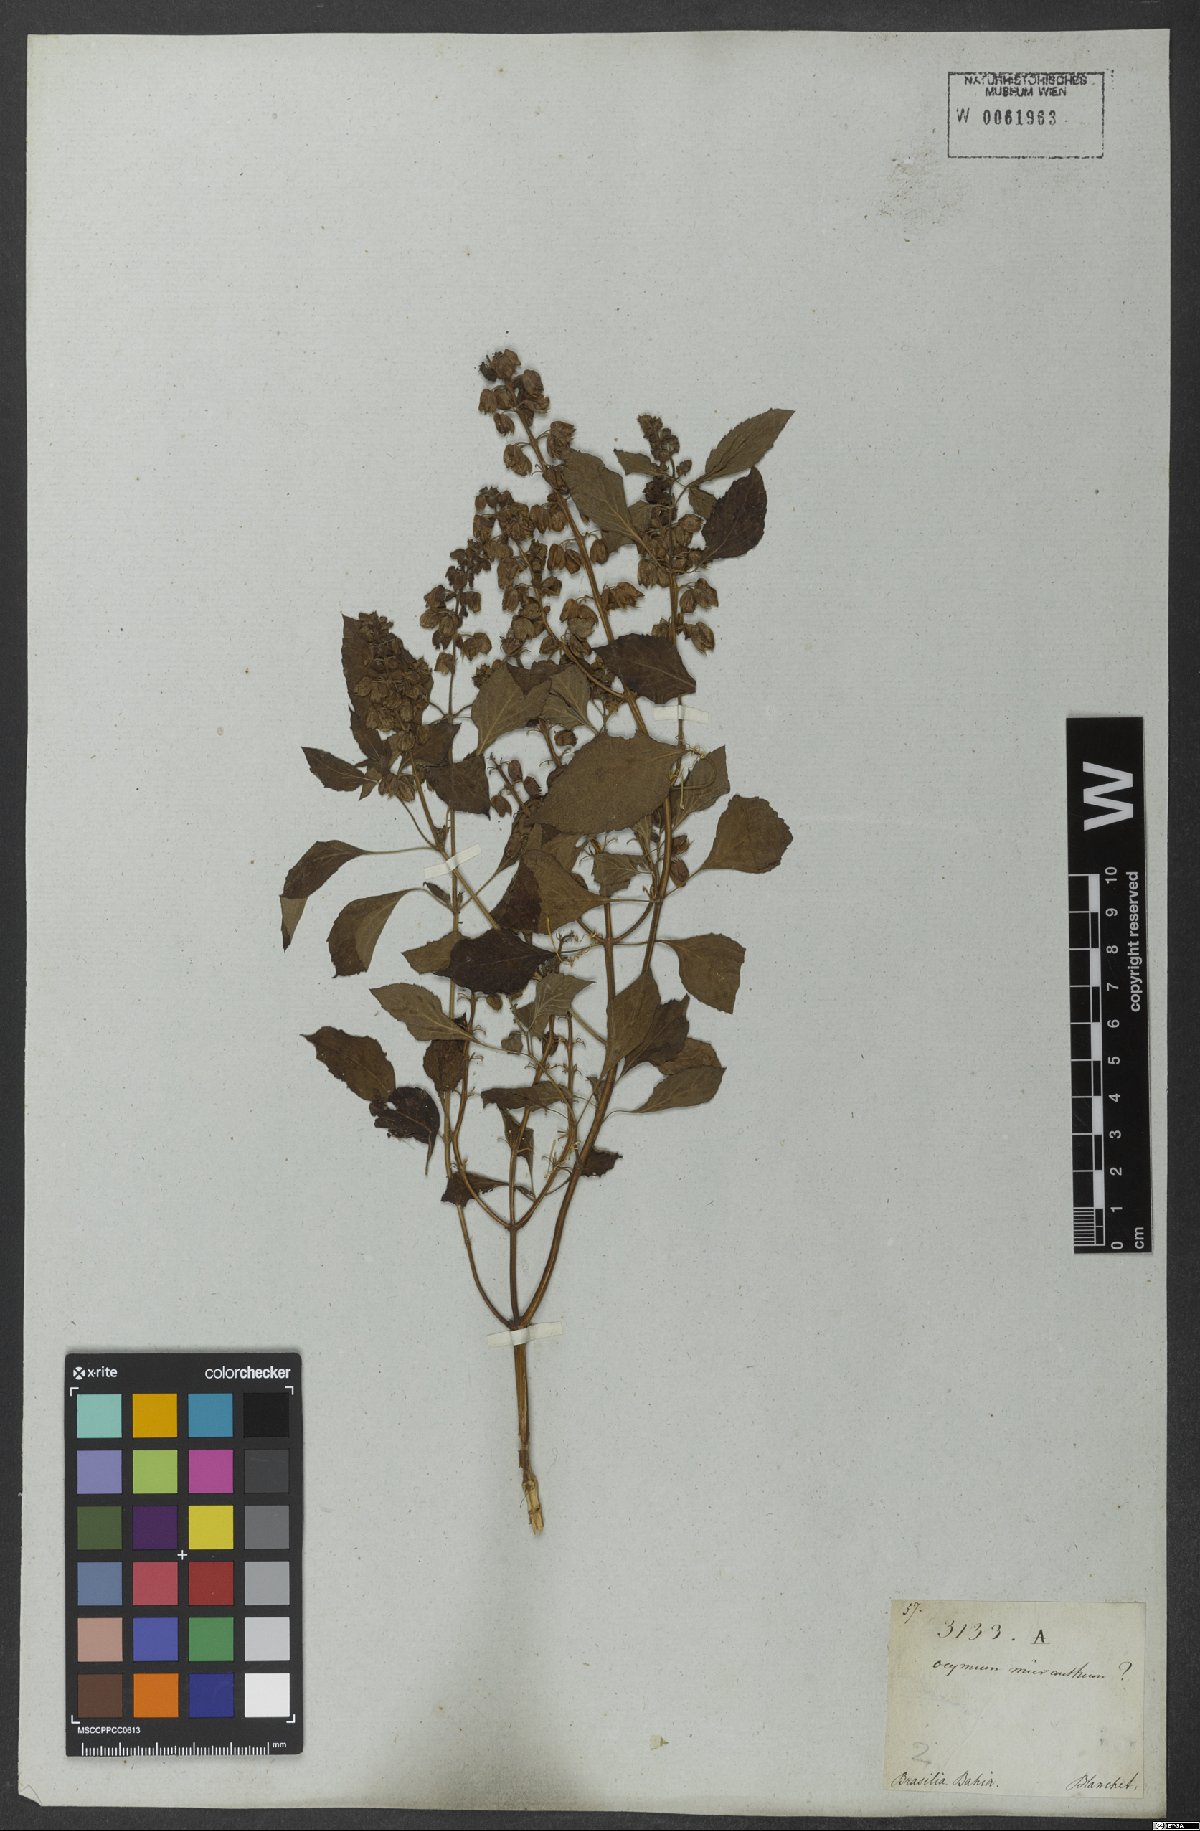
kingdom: Plantae
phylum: Tracheophyta
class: Magnoliopsida
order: Lamiales
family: Lamiaceae
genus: Ocimum
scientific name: Ocimum campechianum
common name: Mosquito basil
